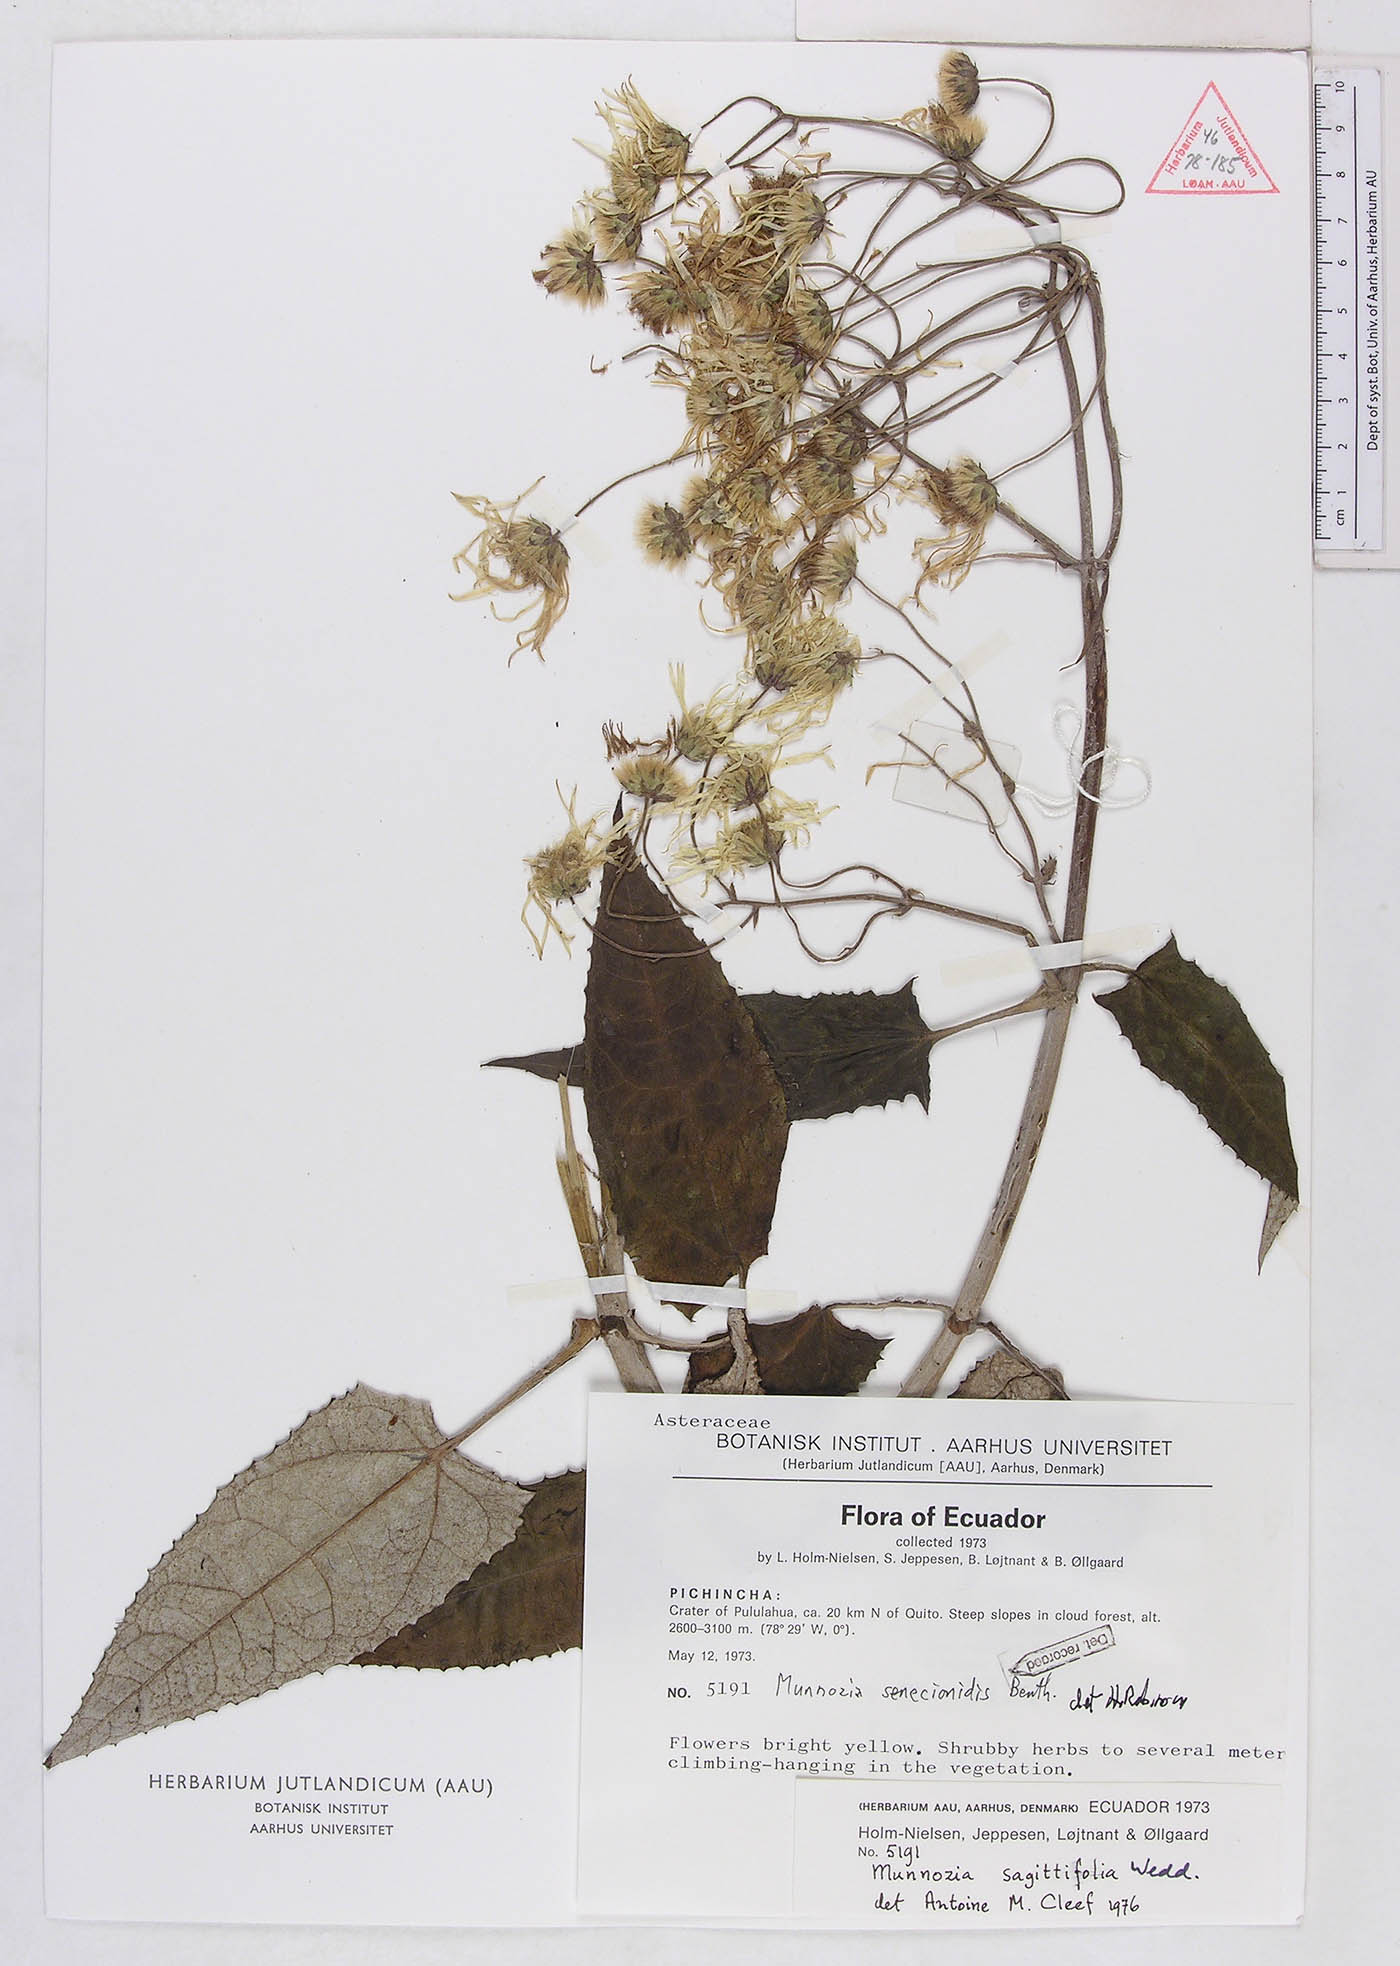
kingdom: Plantae
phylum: Tracheophyta
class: Magnoliopsida
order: Asterales
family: Asteraceae
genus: Munnozia
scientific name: Munnozia senecionidis
